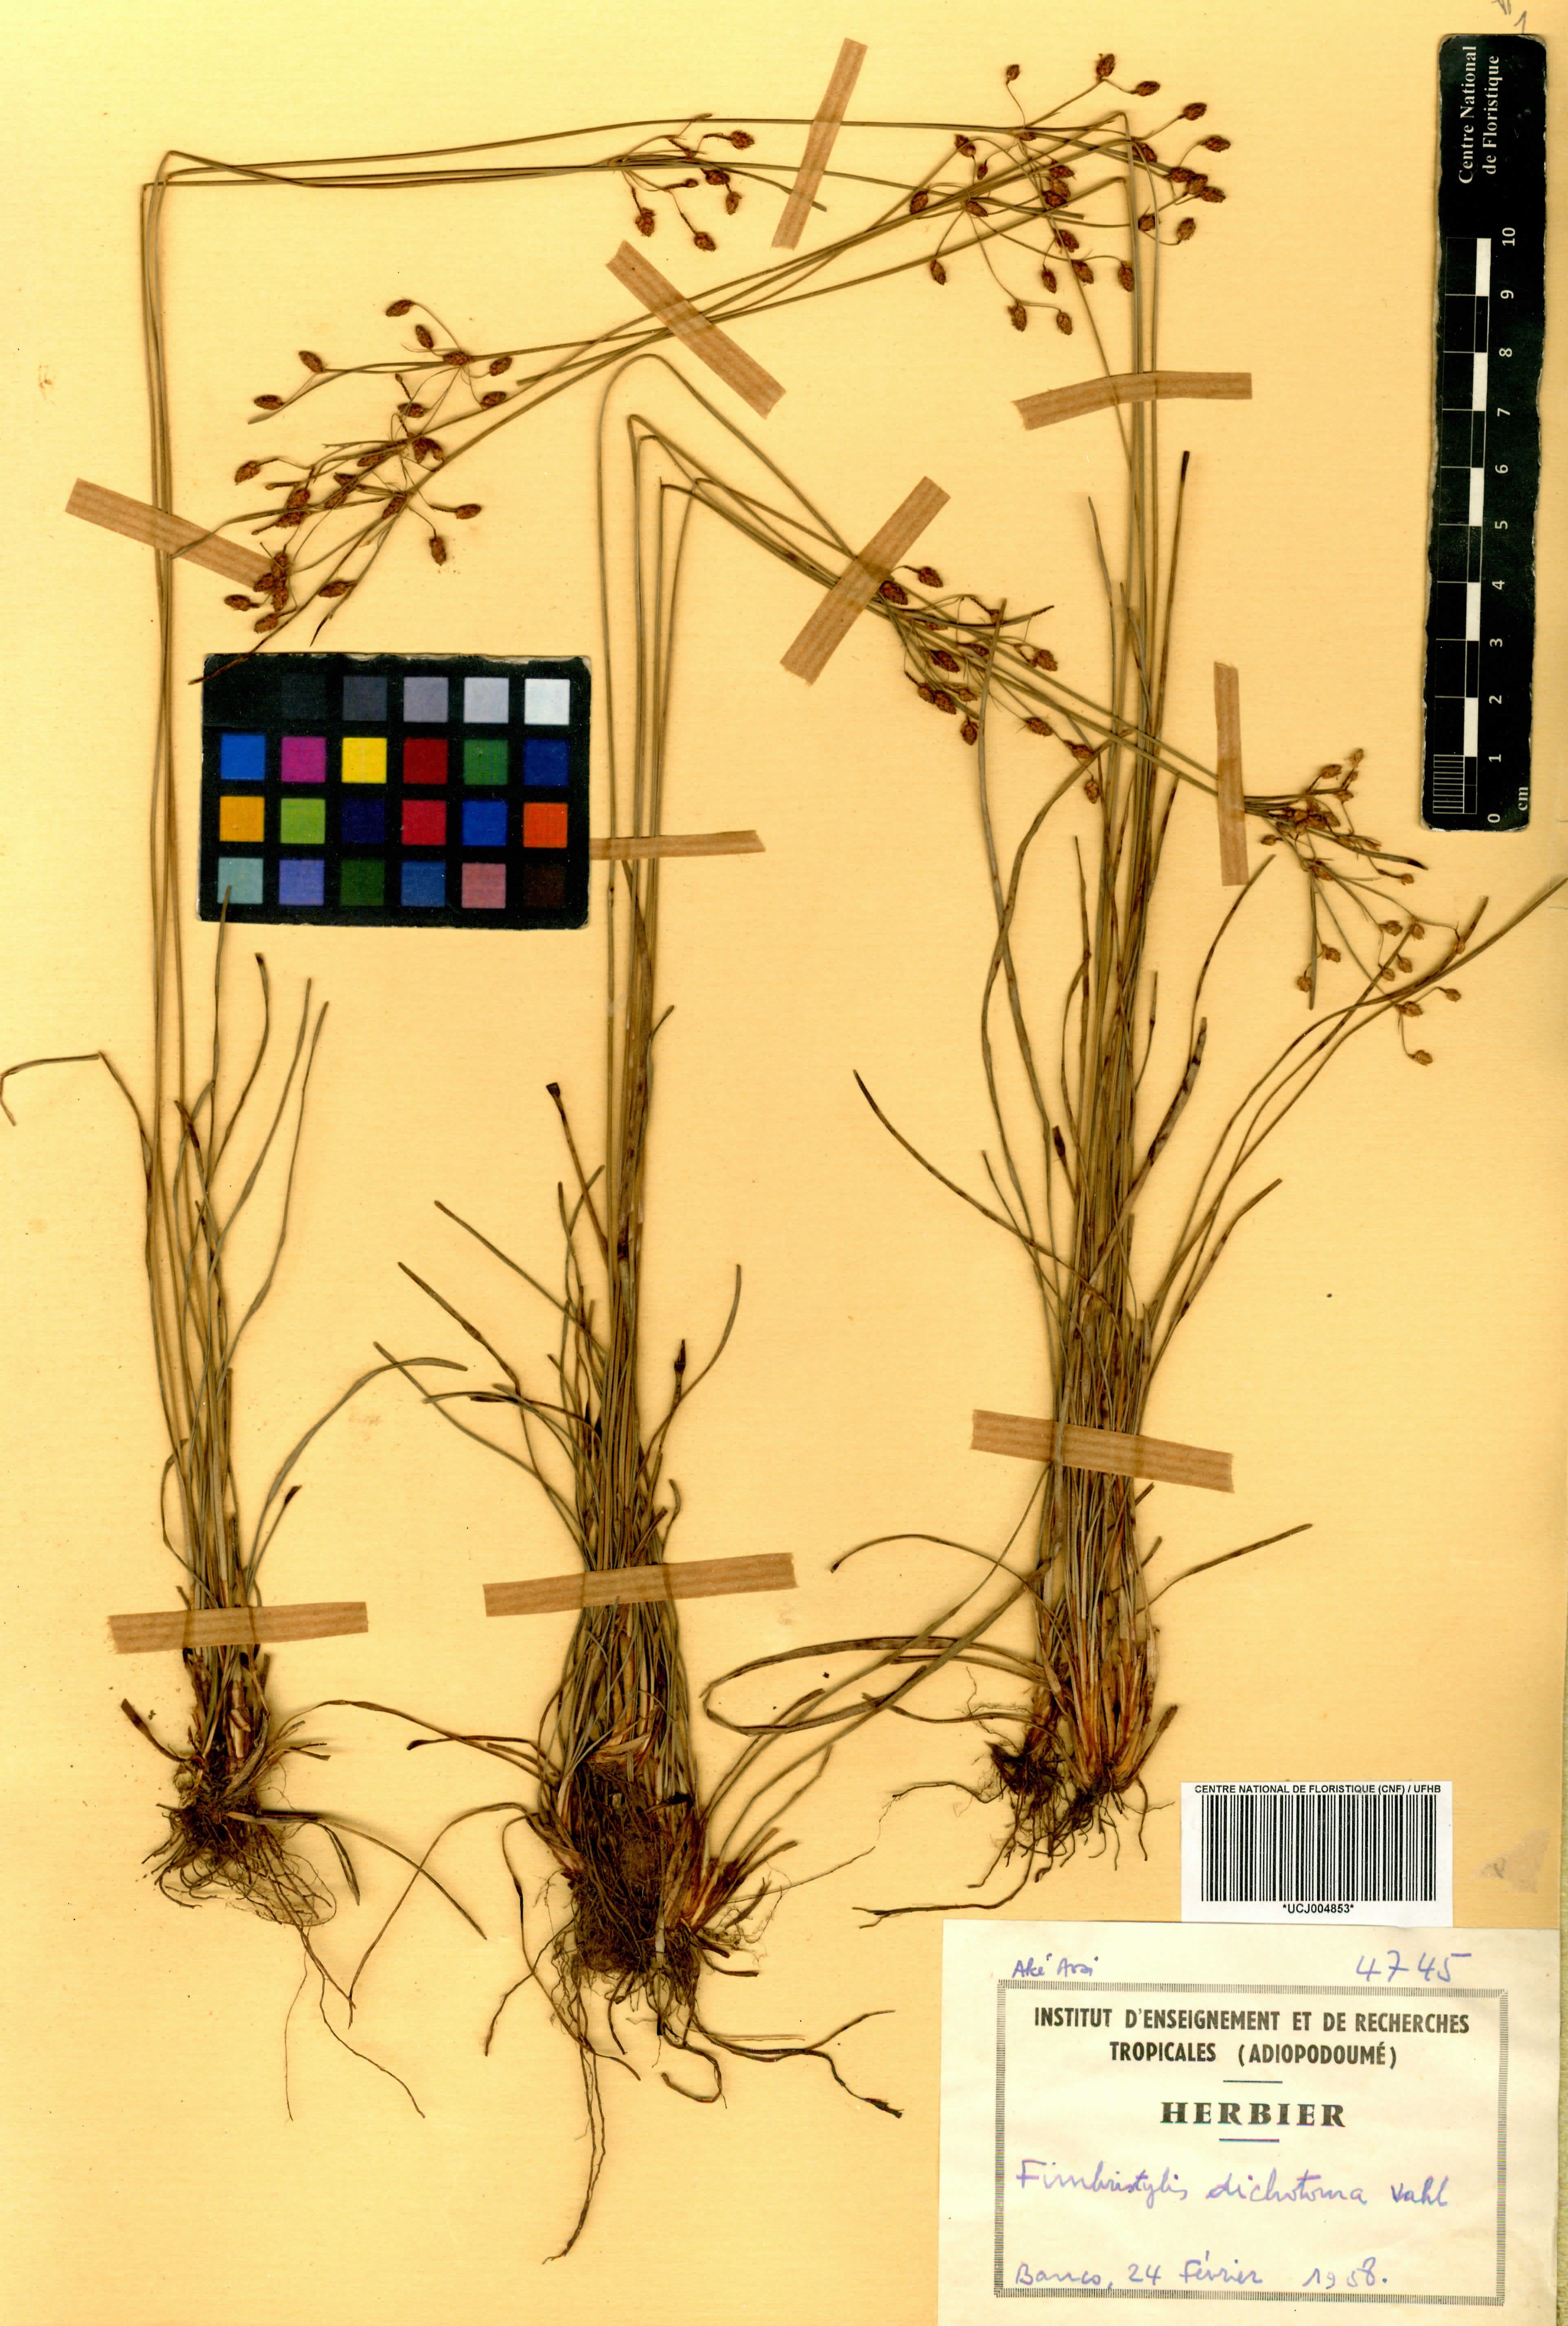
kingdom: Plantae
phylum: Tracheophyta
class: Liliopsida
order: Poales
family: Cyperaceae
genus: Fimbristylis
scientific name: Fimbristylis dichotoma
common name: Forked fimbry
